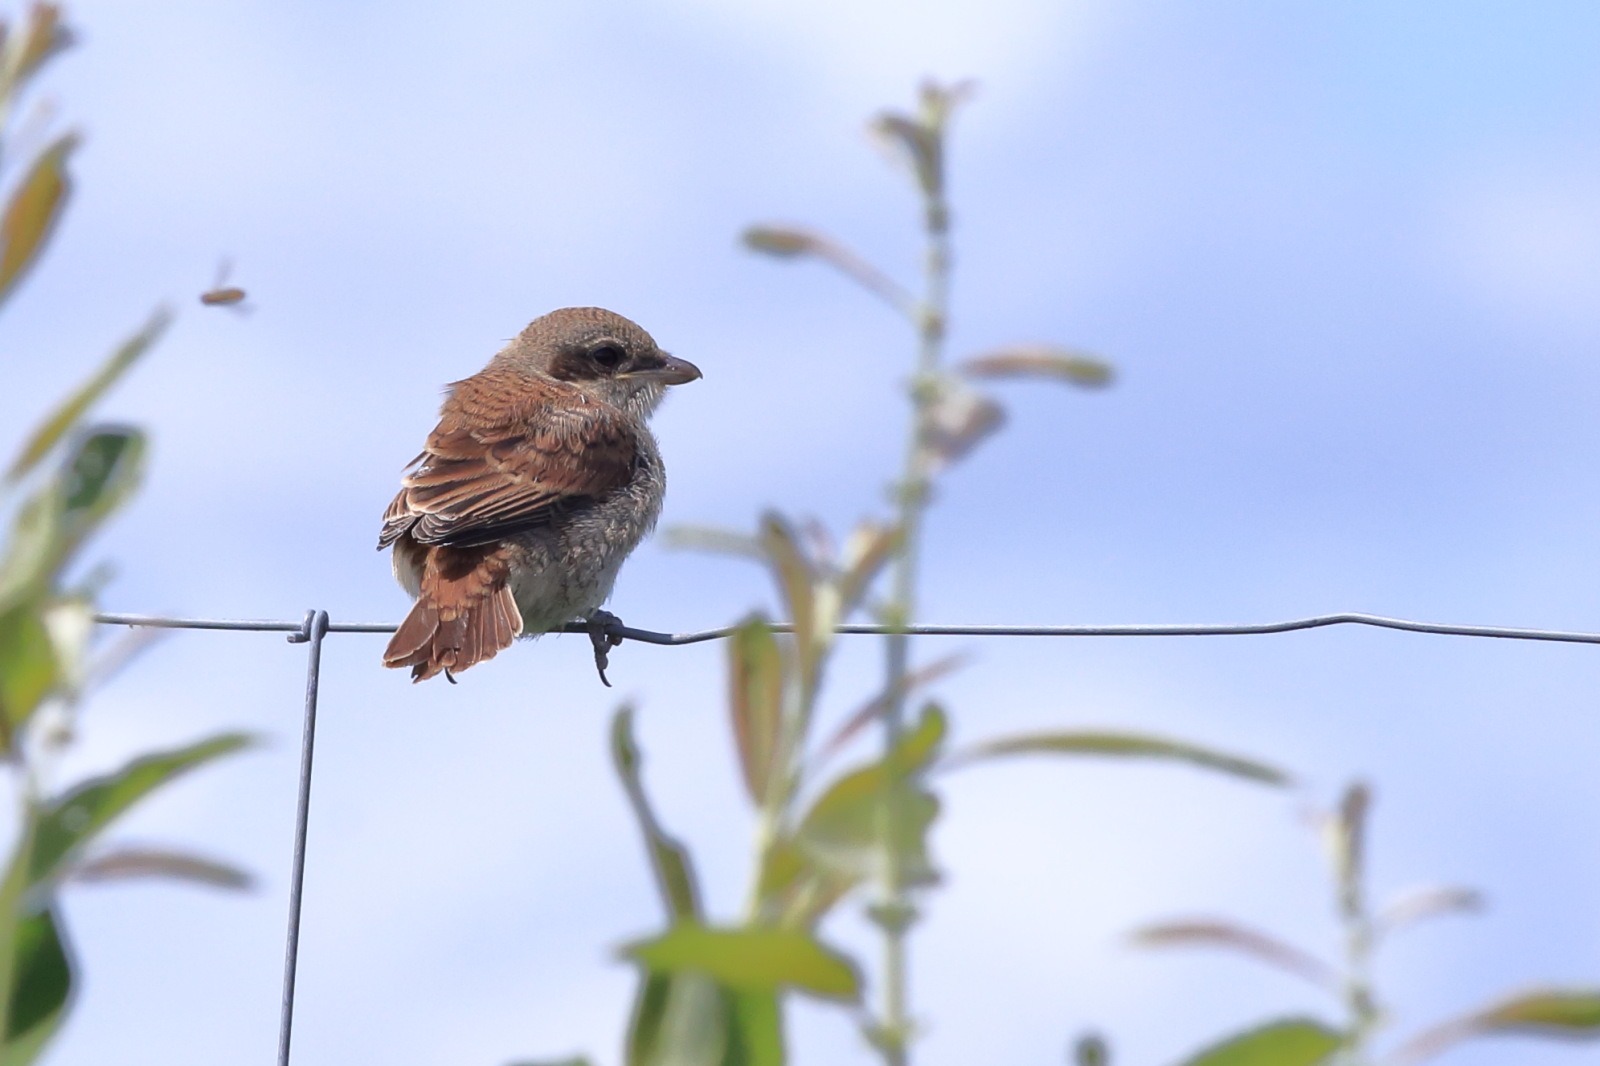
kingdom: Animalia
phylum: Chordata
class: Aves
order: Passeriformes
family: Laniidae
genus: Lanius
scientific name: Lanius collurio
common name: Rødrygget tornskade
